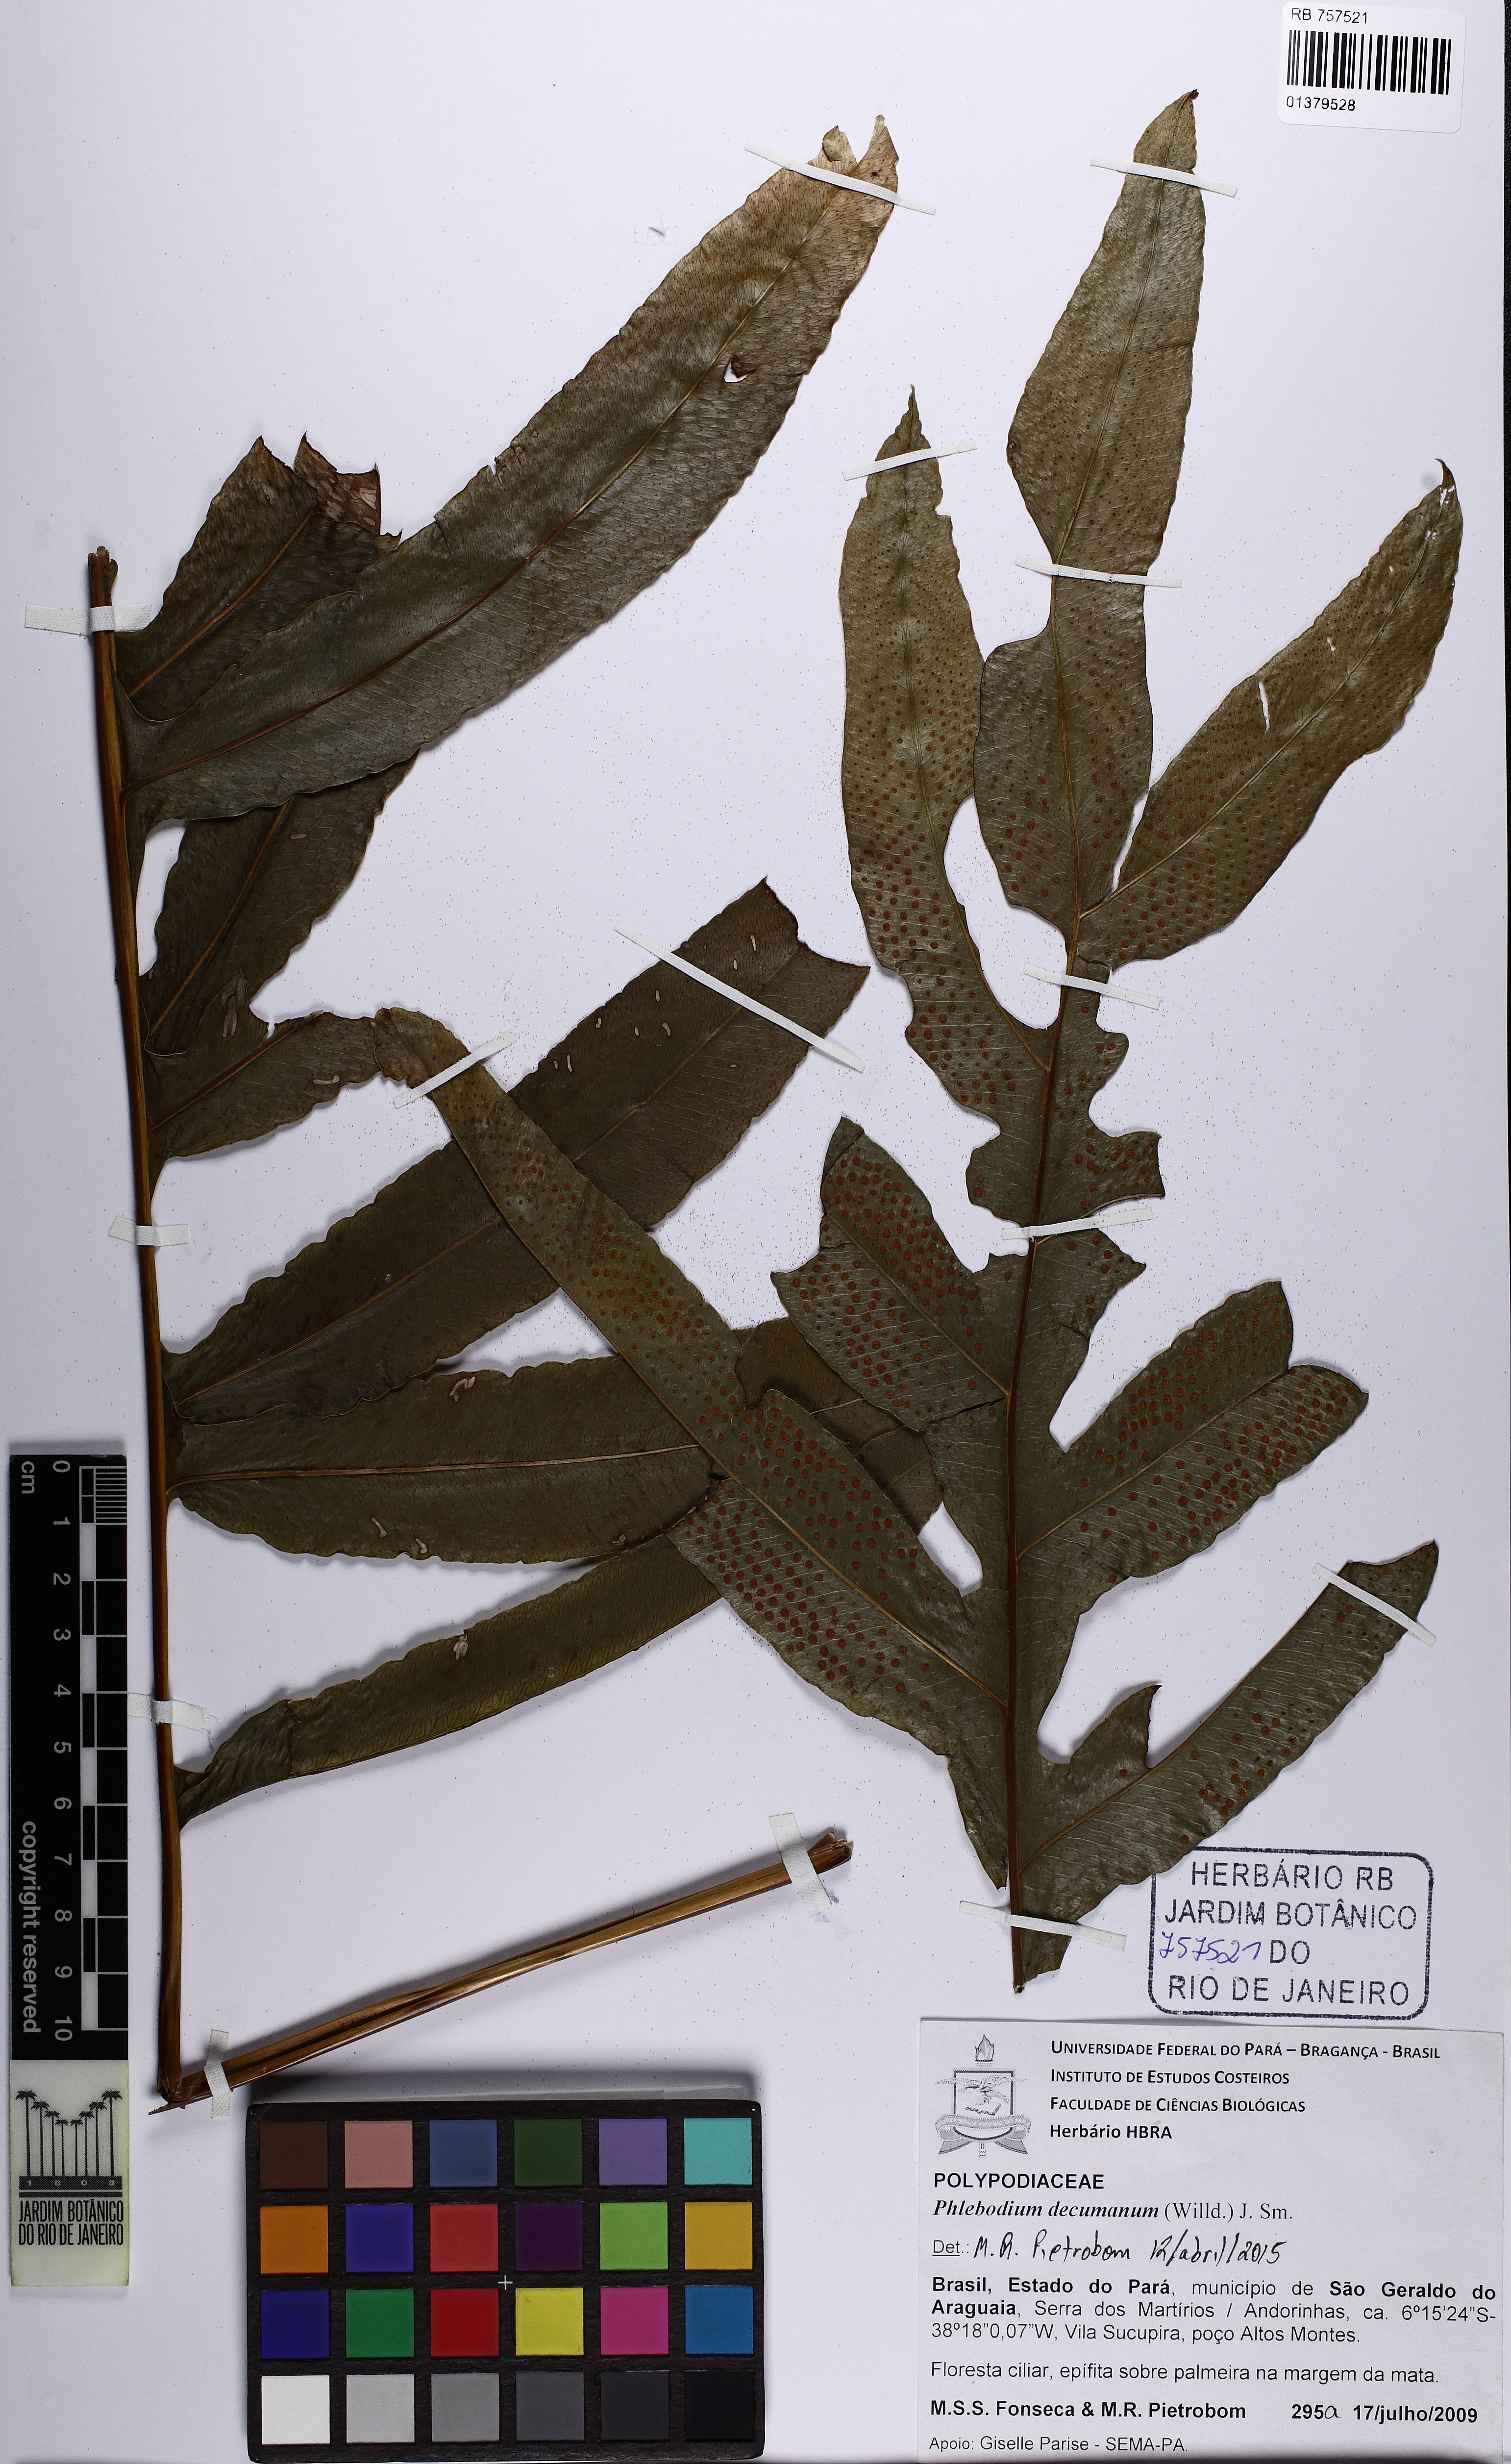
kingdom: Plantae
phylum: Tracheophyta
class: Polypodiopsida
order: Polypodiales
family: Polypodiaceae
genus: Phlebodium
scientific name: Phlebodium decumanum
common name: Golden polypod
